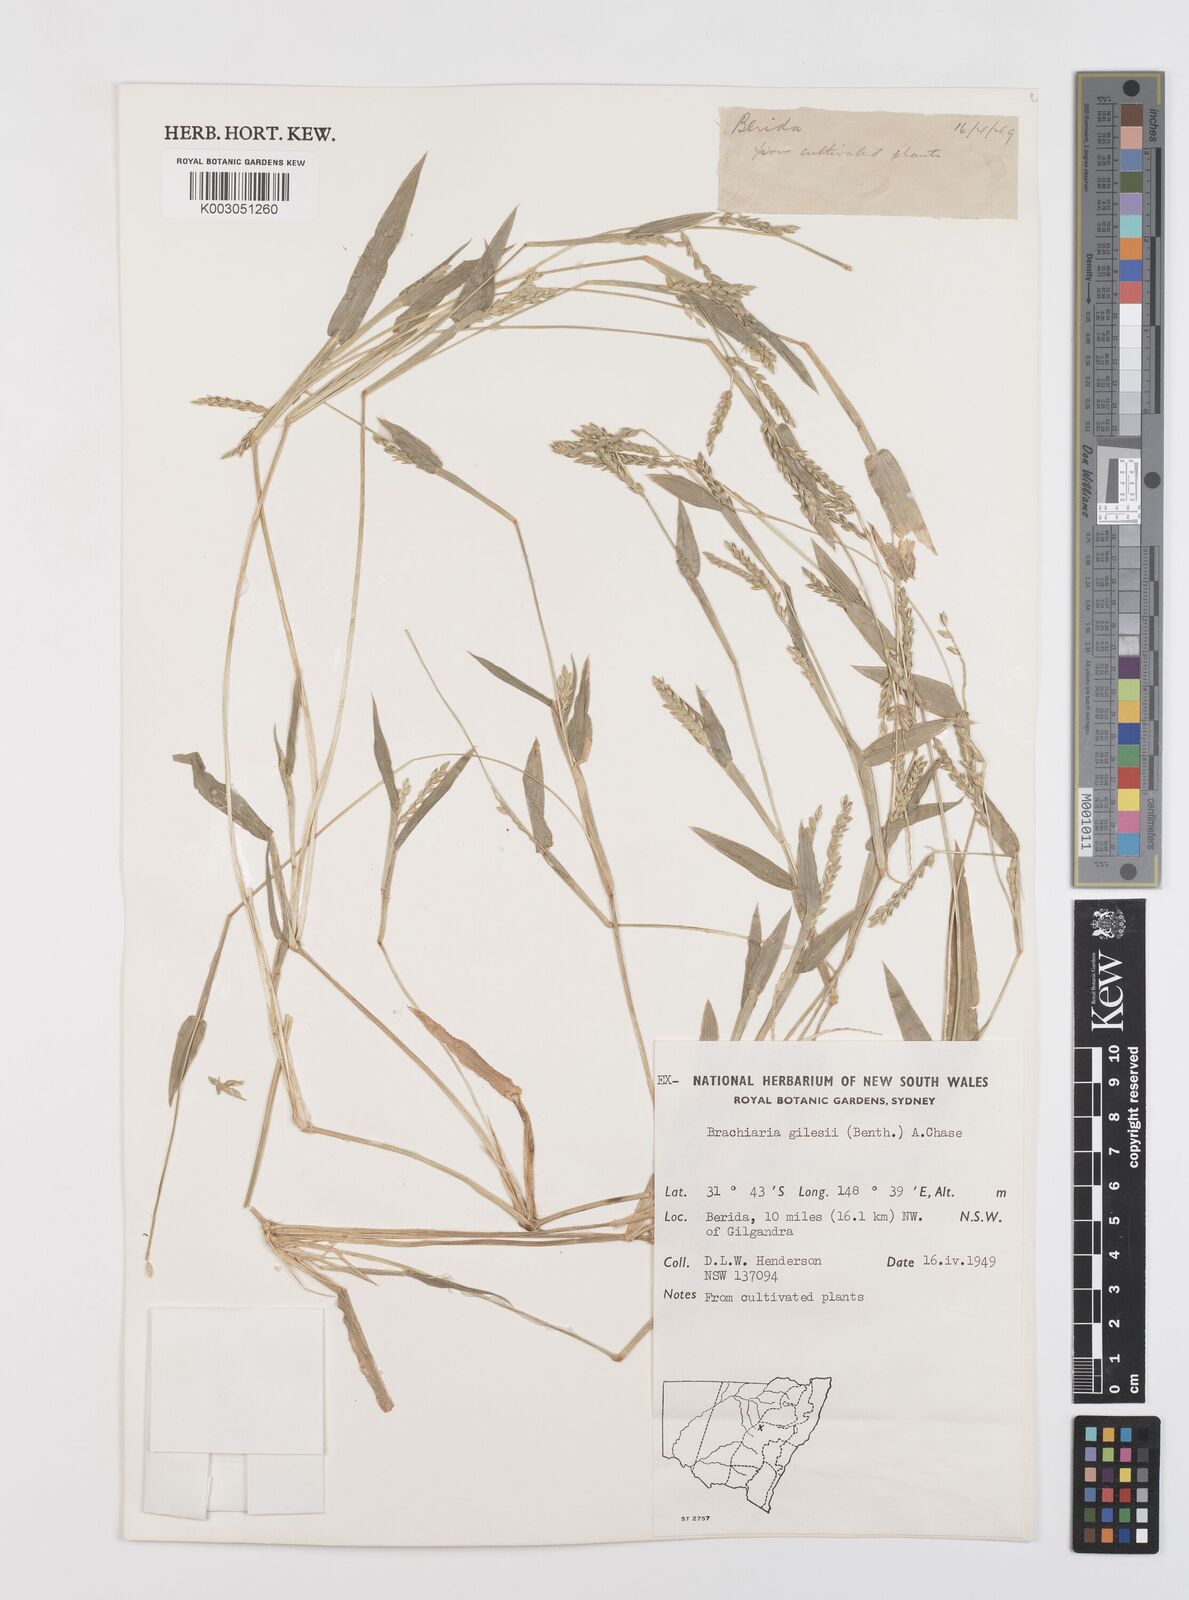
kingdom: Plantae
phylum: Tracheophyta
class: Liliopsida
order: Poales
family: Poaceae
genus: Urochloa
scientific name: Urochloa gilesii
